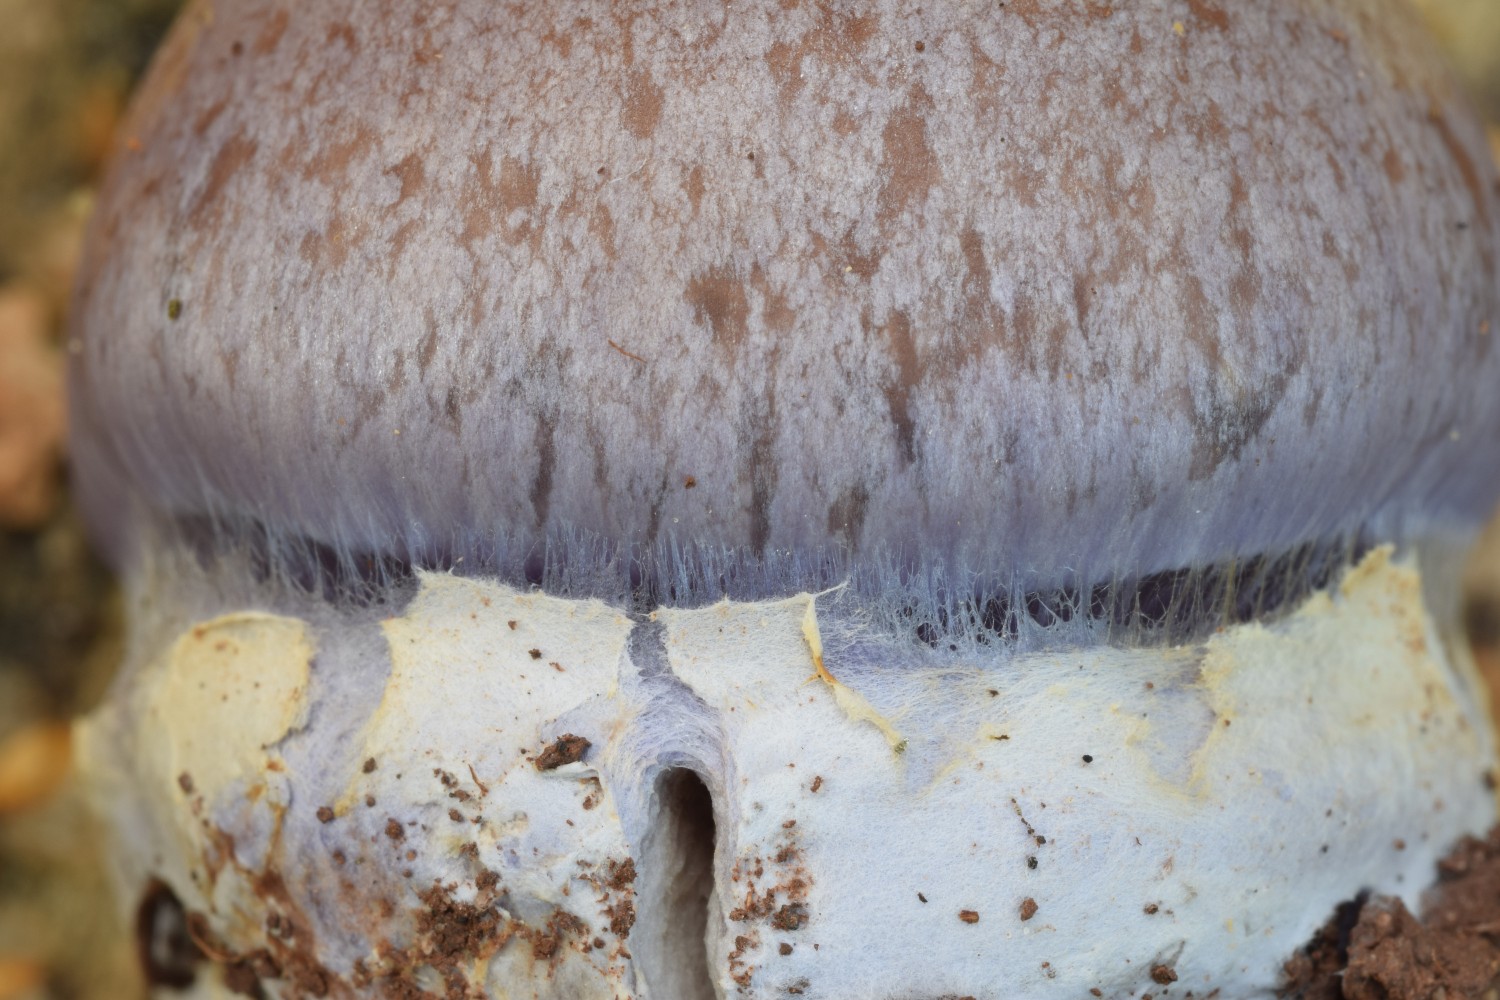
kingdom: Fungi
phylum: Basidiomycota
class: Agaricomycetes
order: Agaricales
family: Cortinariaceae
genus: Phlegmacium
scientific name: Phlegmacium moenne-loccozii
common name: pose-slørhat
